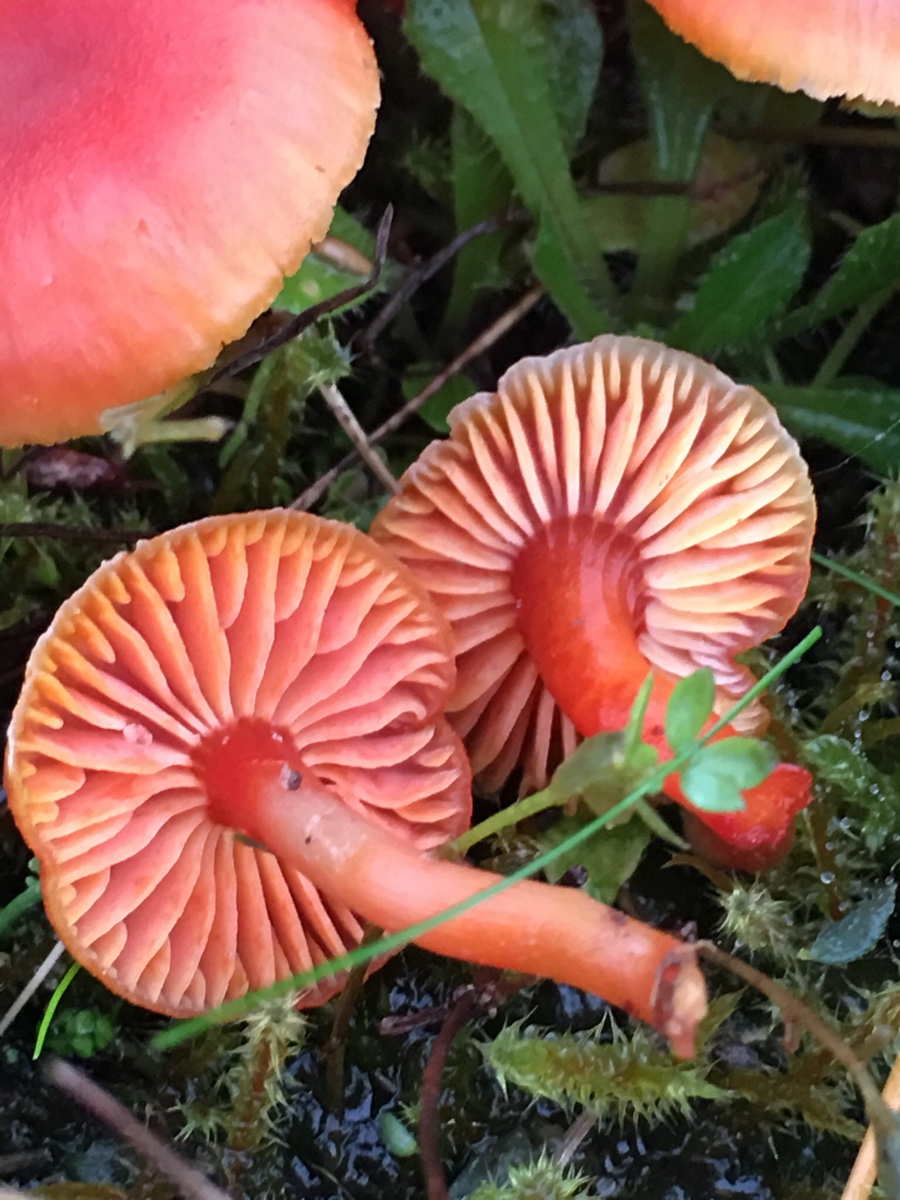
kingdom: Fungi
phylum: Basidiomycota
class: Agaricomycetes
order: Agaricales
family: Hygrophoraceae
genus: Hygrocybe
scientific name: Hygrocybe phaeococcinea
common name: sortdugget vokshat
